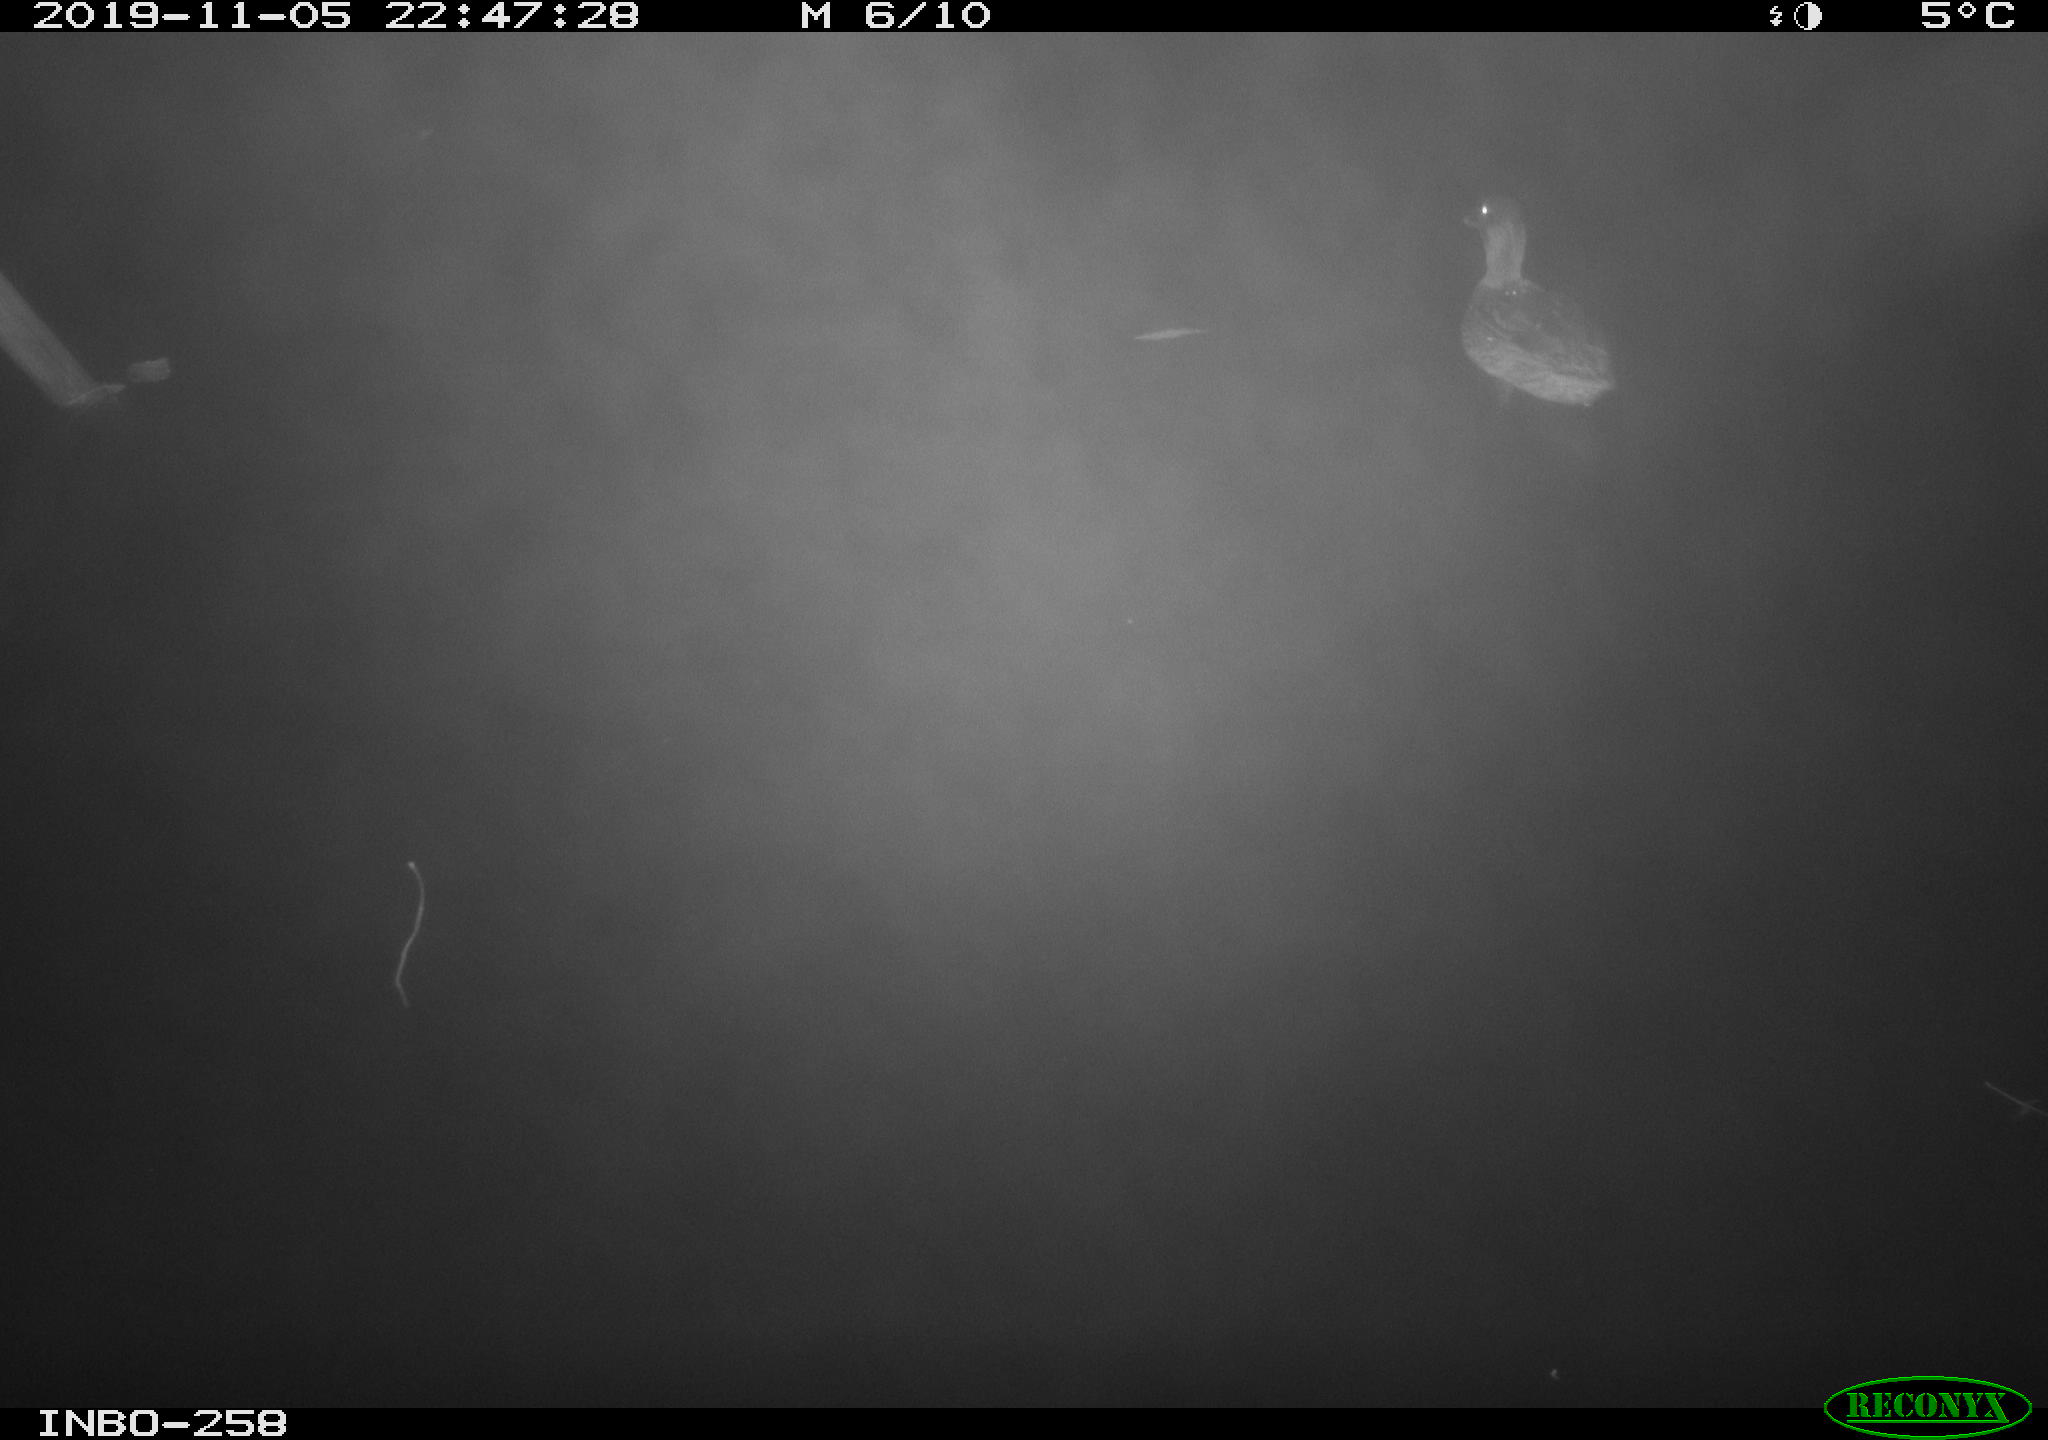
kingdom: Animalia
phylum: Chordata
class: Aves
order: Anseriformes
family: Anatidae
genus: Anas
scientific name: Anas platyrhynchos
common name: Mallard
